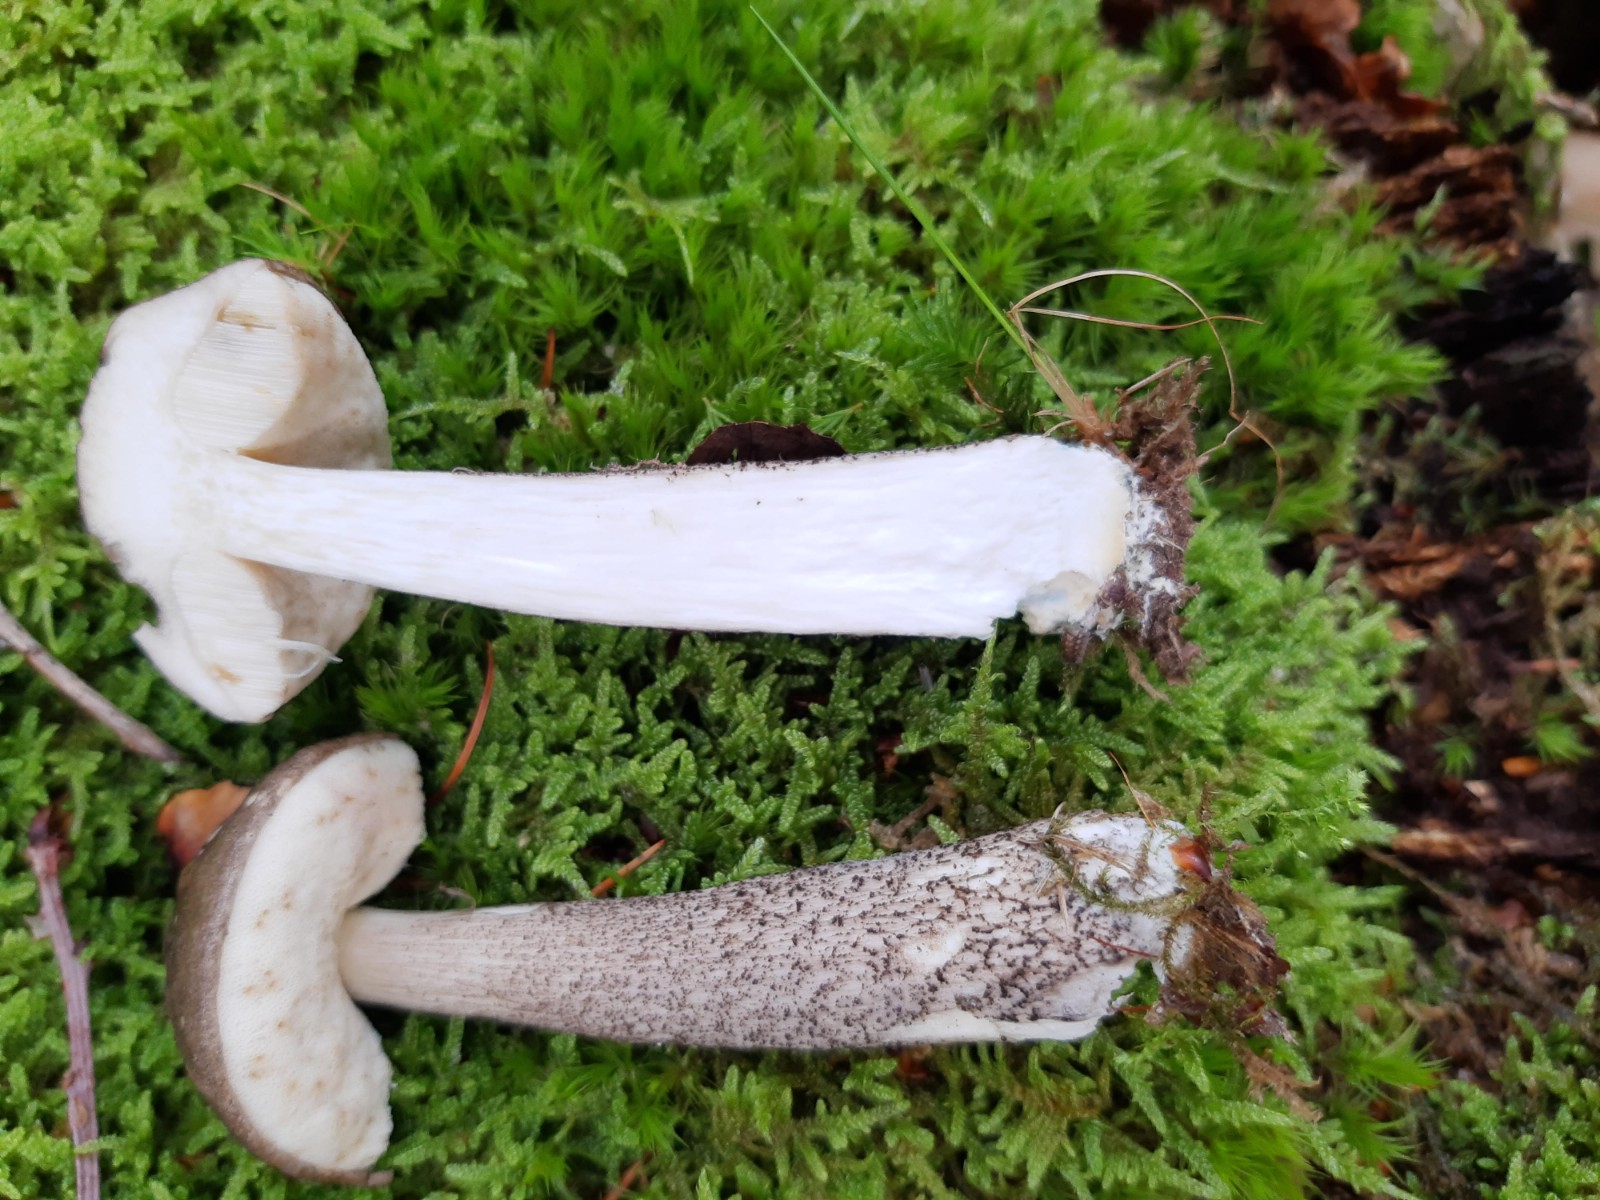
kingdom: Fungi
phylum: Basidiomycota
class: Agaricomycetes
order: Boletales
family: Boletaceae
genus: Leccinum
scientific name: Leccinum variicolor
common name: flammet skælrørhat
